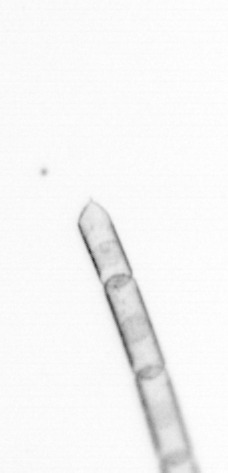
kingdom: Chromista
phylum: Ochrophyta
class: Bacillariophyceae
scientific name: Bacillariophyceae
